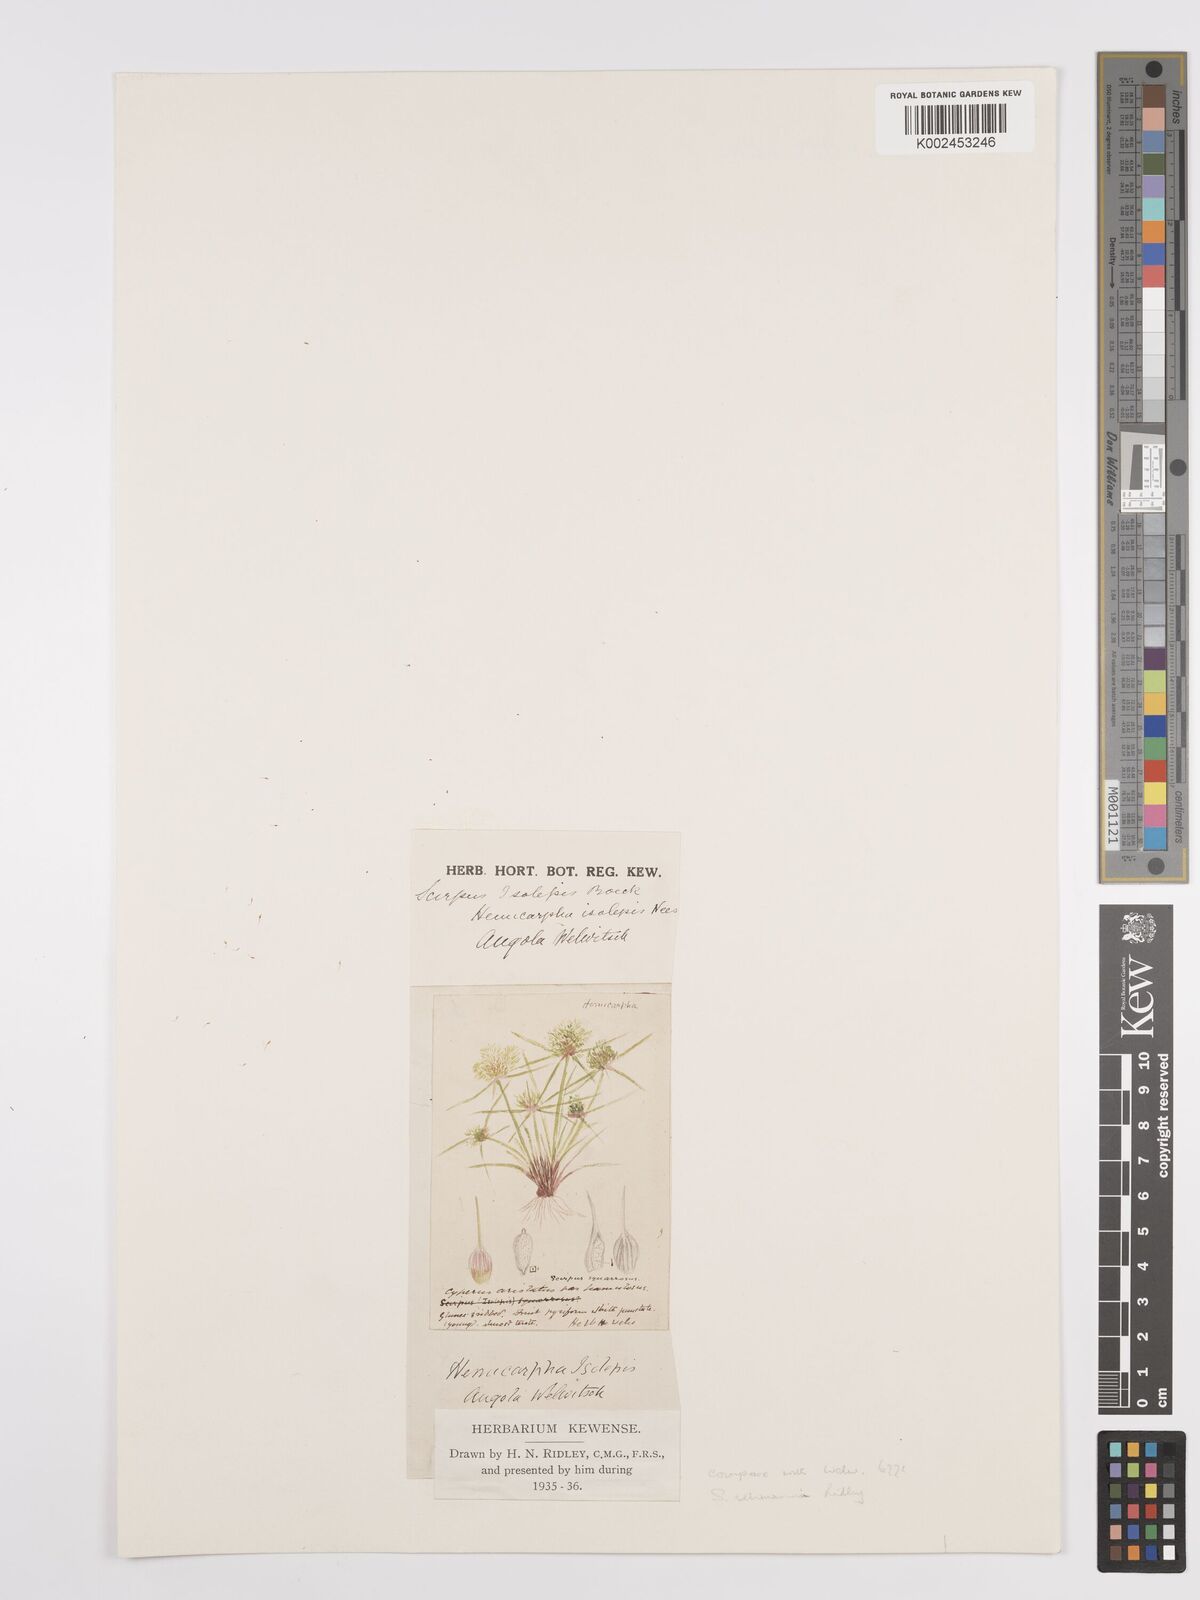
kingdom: Plantae
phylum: Tracheophyta
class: Liliopsida
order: Poales
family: Cyperaceae
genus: Cyperus
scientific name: Cyperus sanguinolentus
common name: Purpleglume flatsedge
